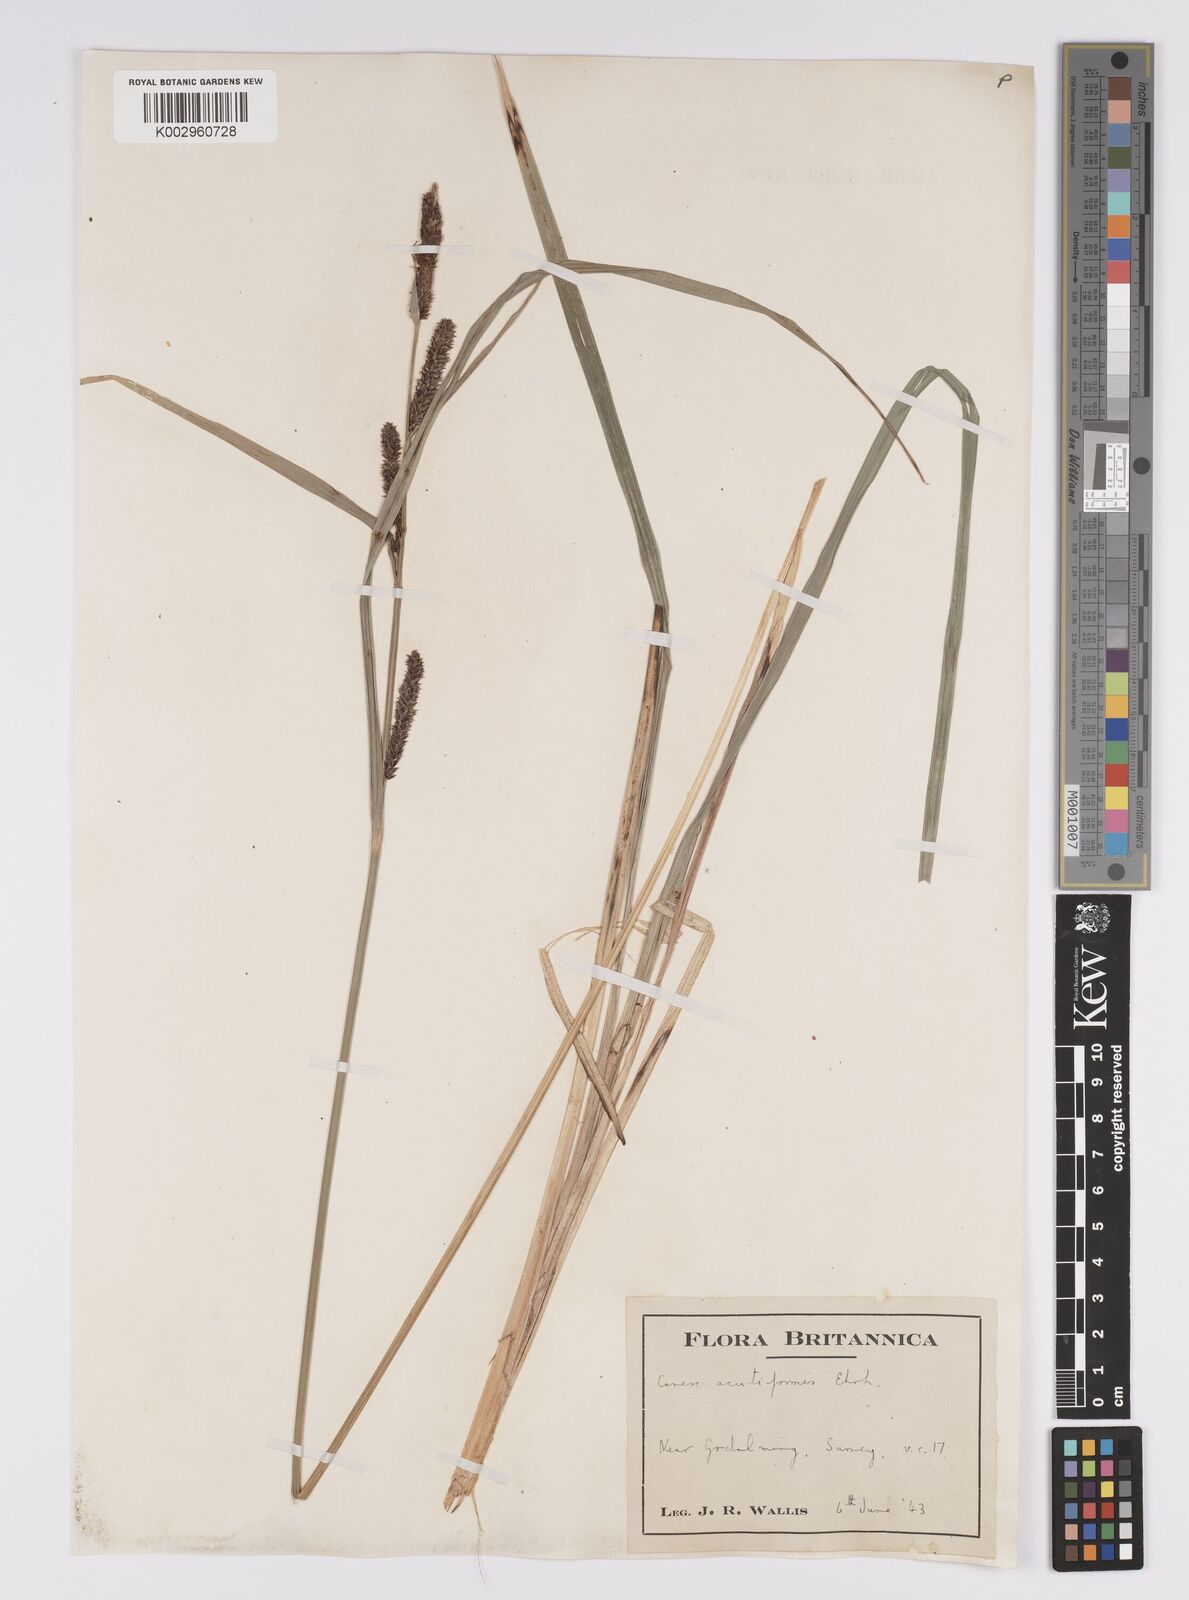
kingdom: Plantae
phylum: Tracheophyta
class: Liliopsida
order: Poales
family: Cyperaceae
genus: Carex
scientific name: Carex acutiformis
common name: Lesser pond-sedge
